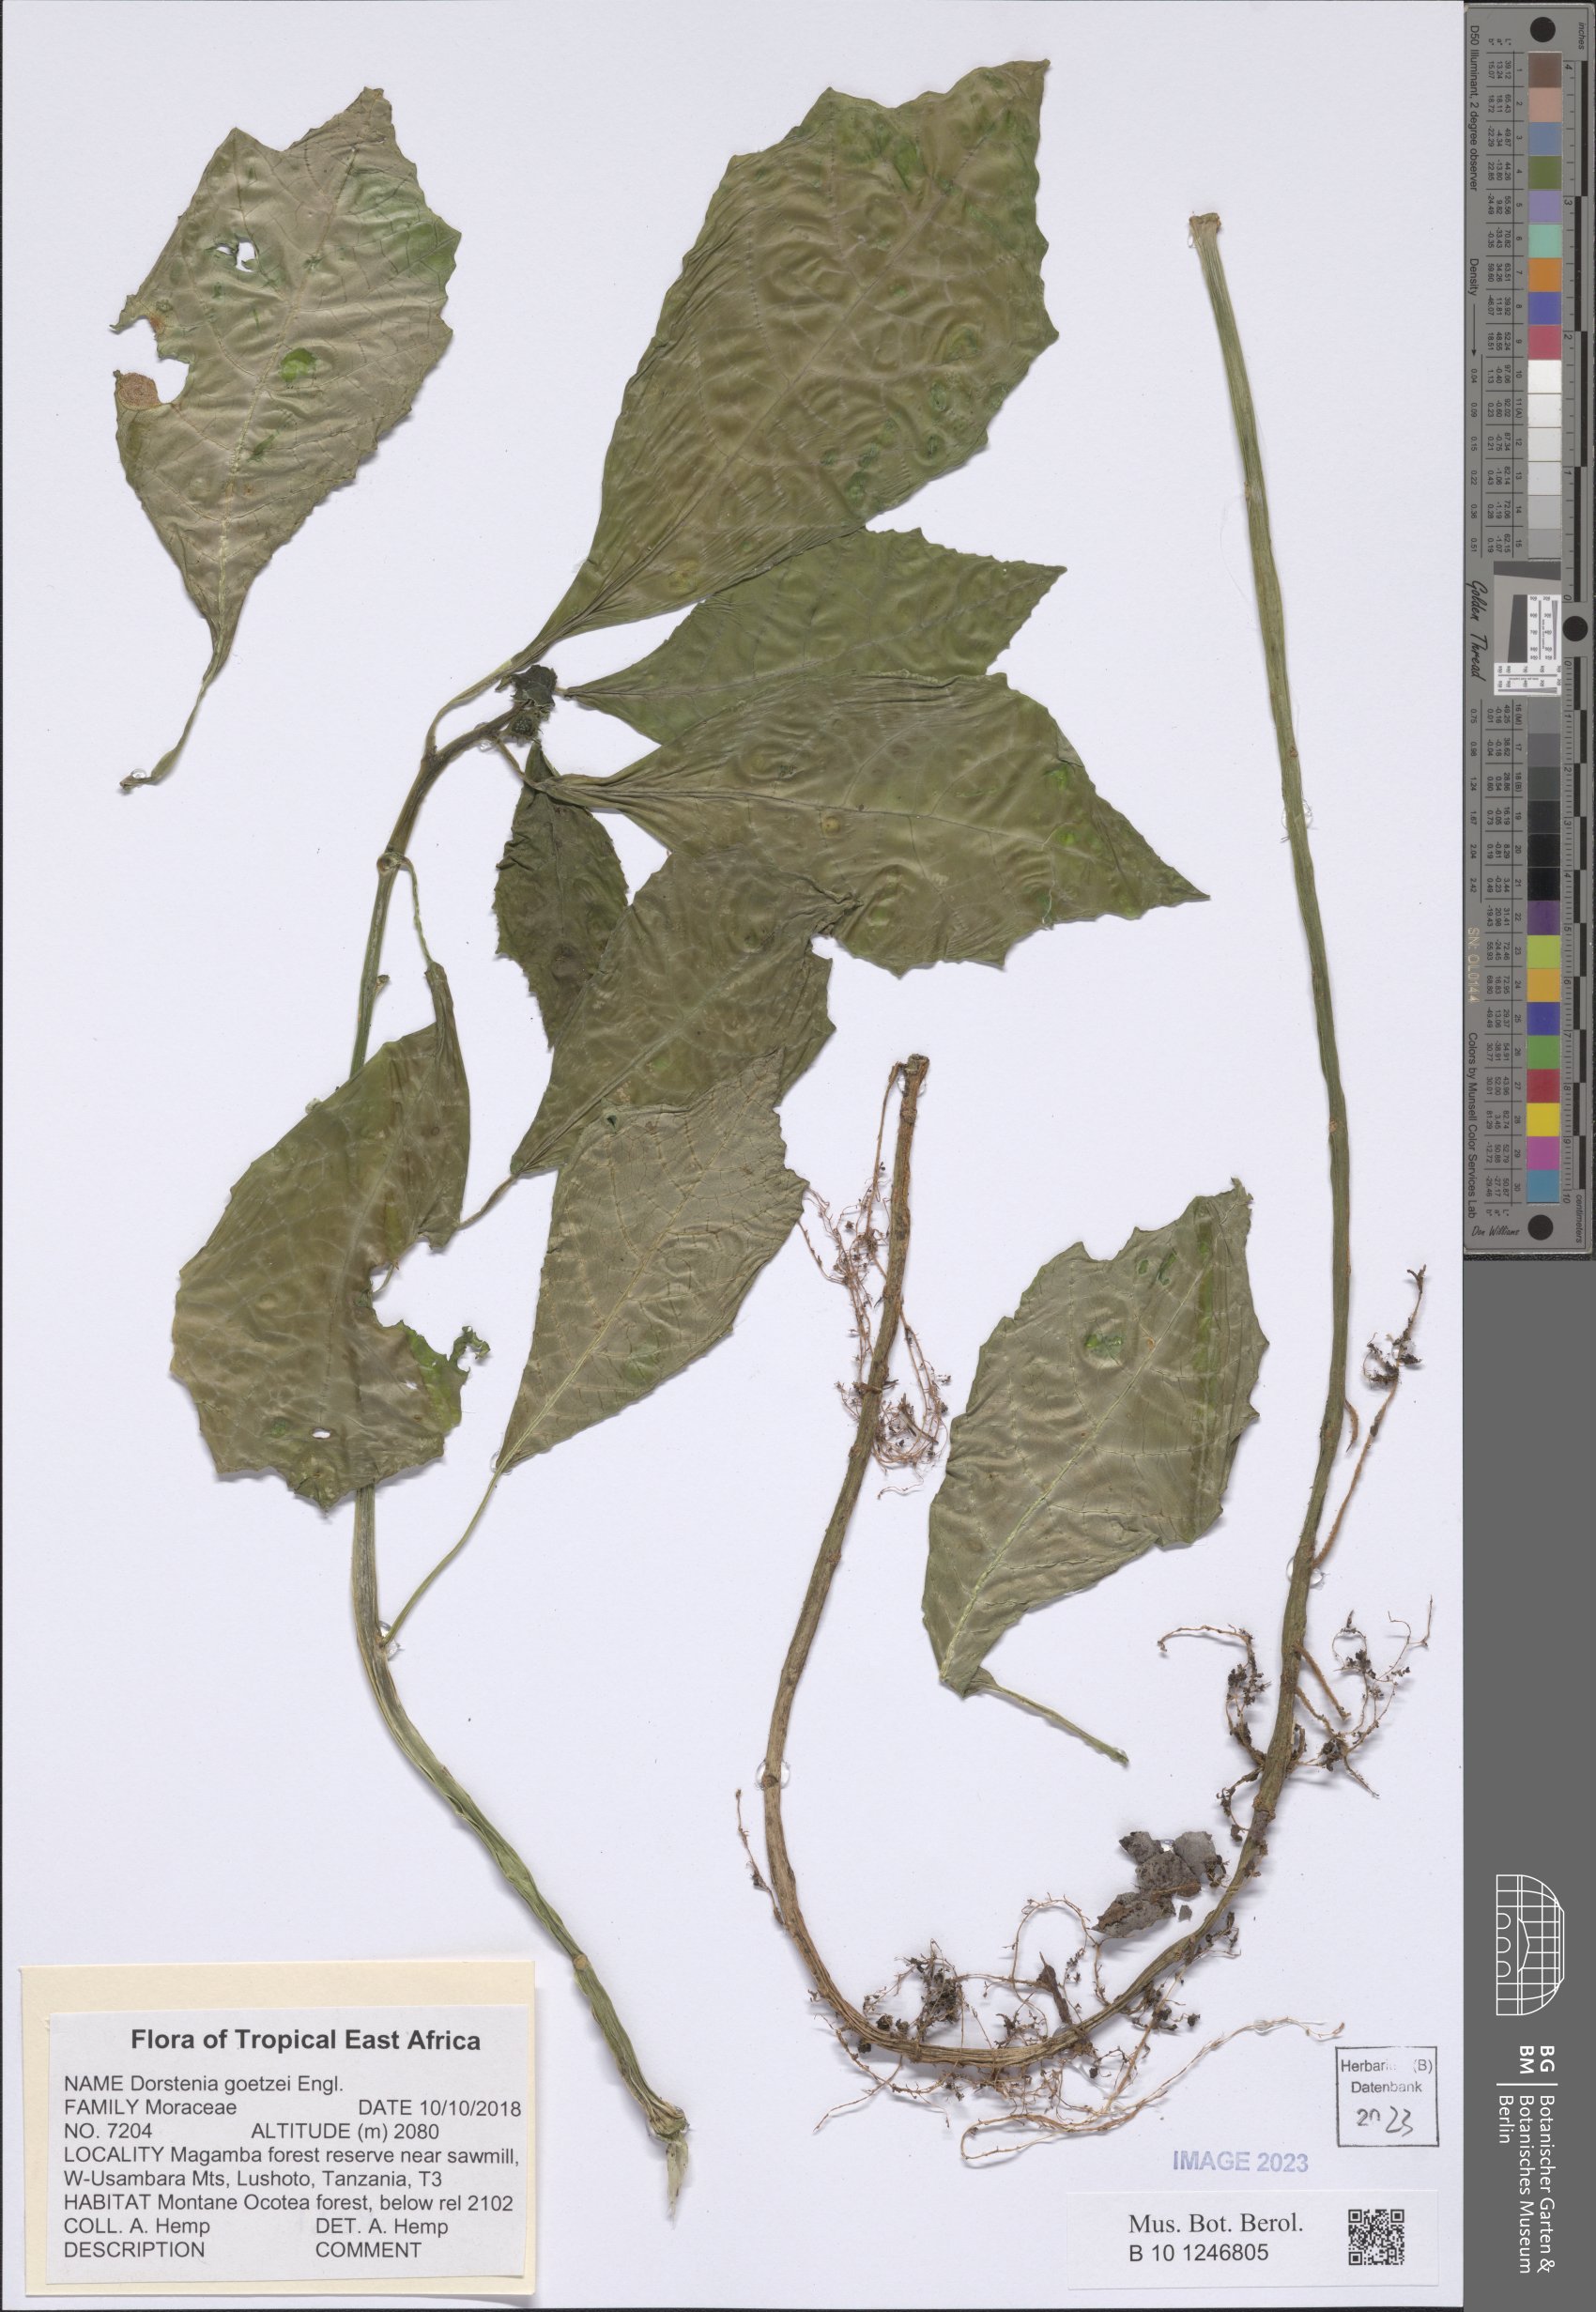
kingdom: Plantae
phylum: Tracheophyta
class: Magnoliopsida
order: Rosales
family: Moraceae
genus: Dorstenia
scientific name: Dorstenia goetzei
